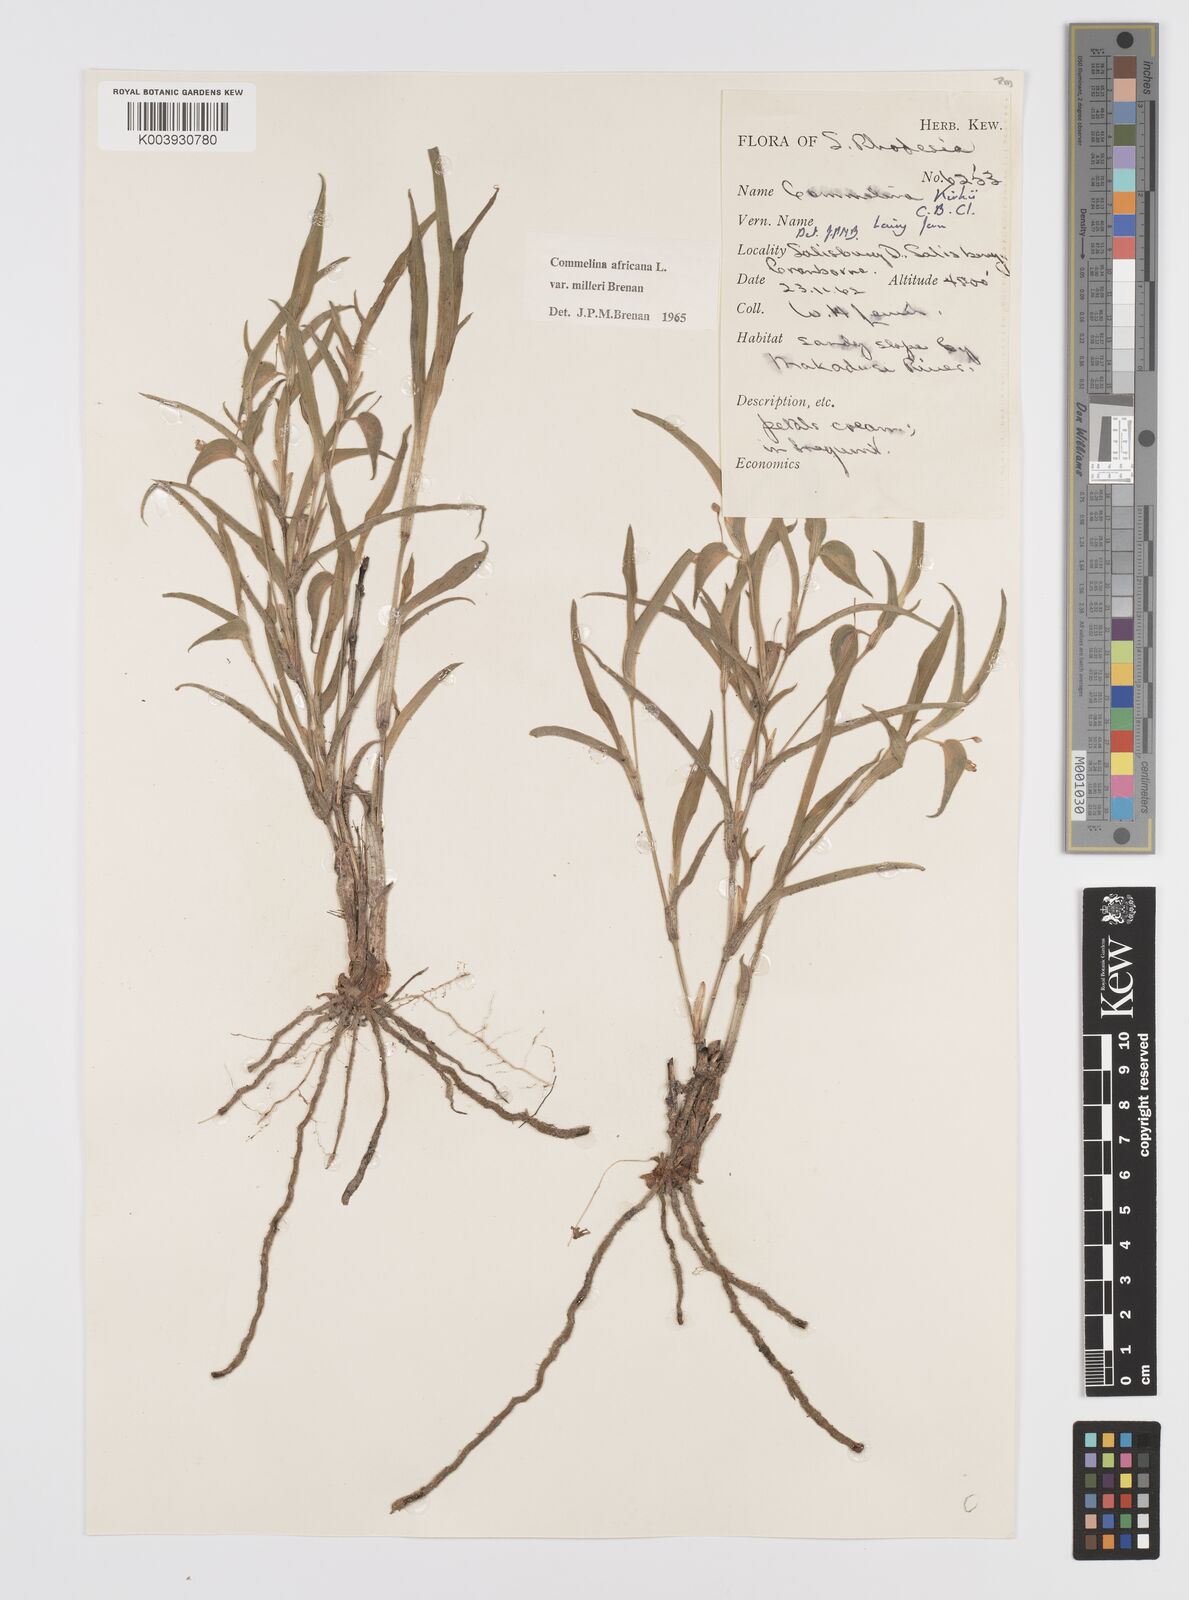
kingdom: Plantae
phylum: Tracheophyta
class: Liliopsida
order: Commelinales
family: Commelinaceae
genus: Commelina
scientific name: Commelina africana
